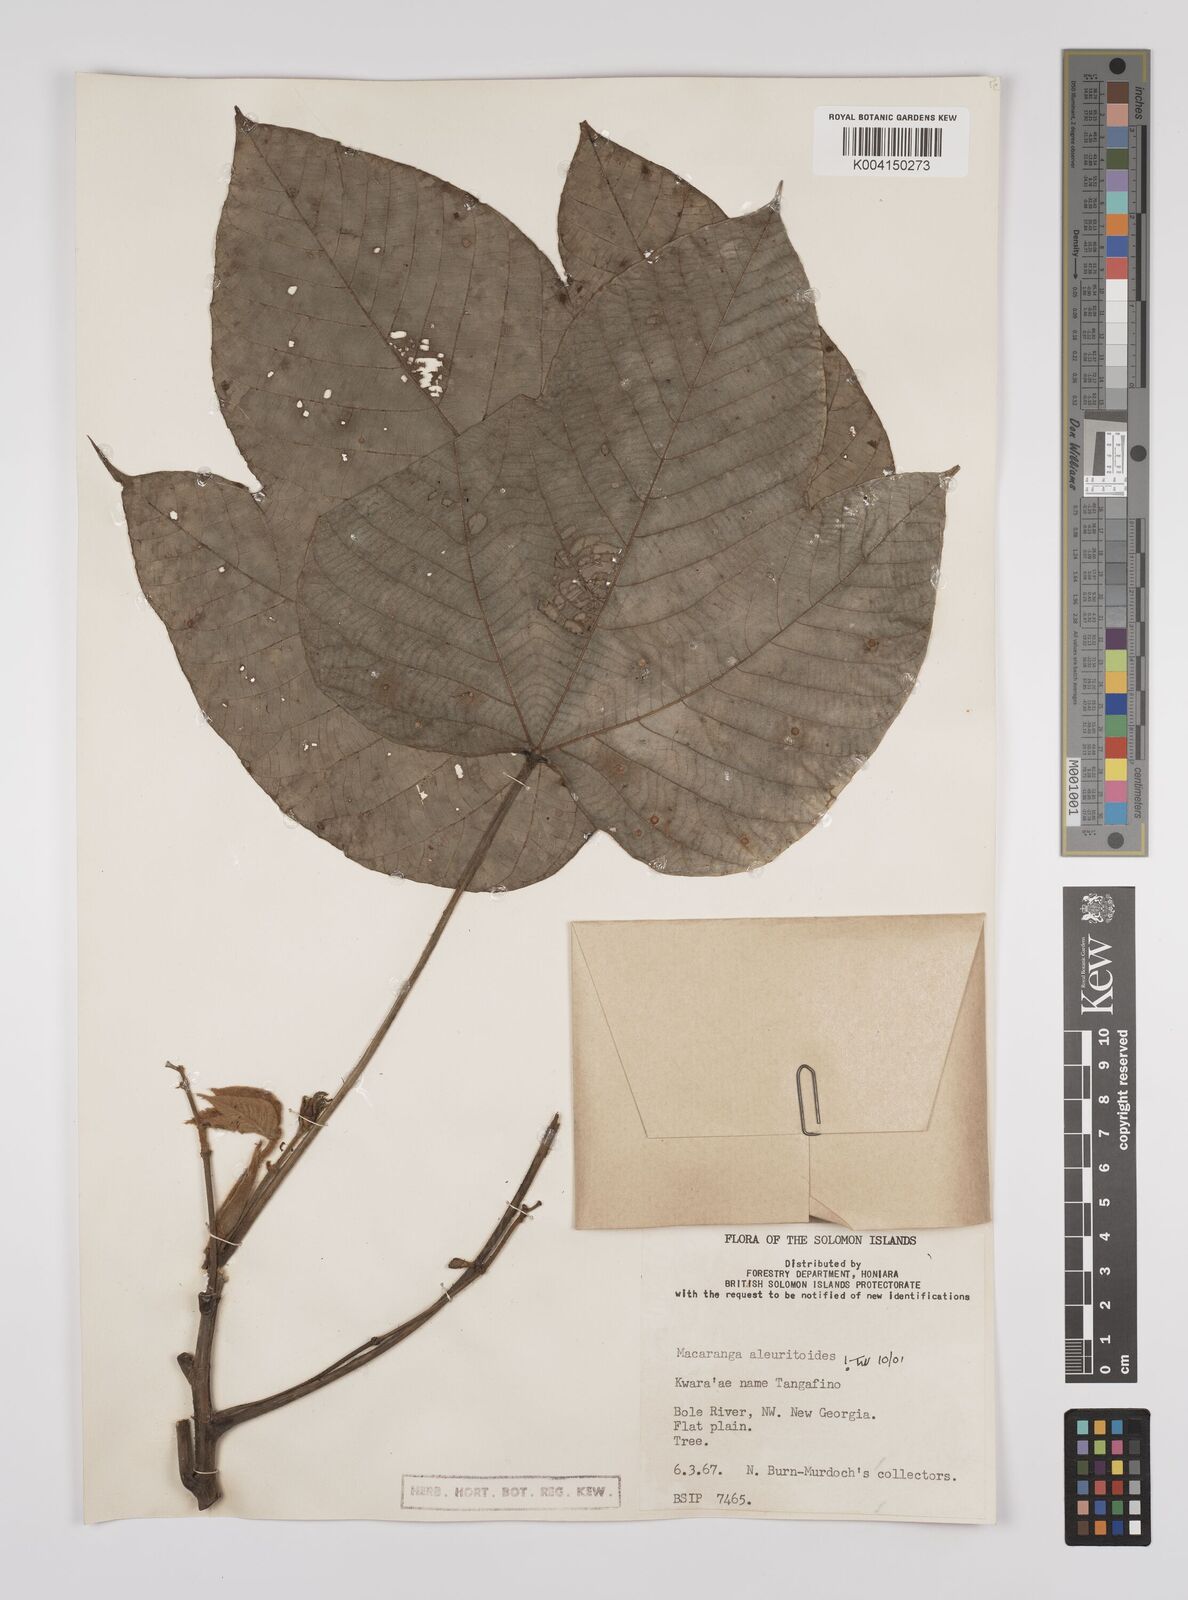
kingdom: Plantae
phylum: Tracheophyta
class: Magnoliopsida
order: Malpighiales
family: Euphorbiaceae
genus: Macaranga
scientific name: Macaranga aleuritoides
